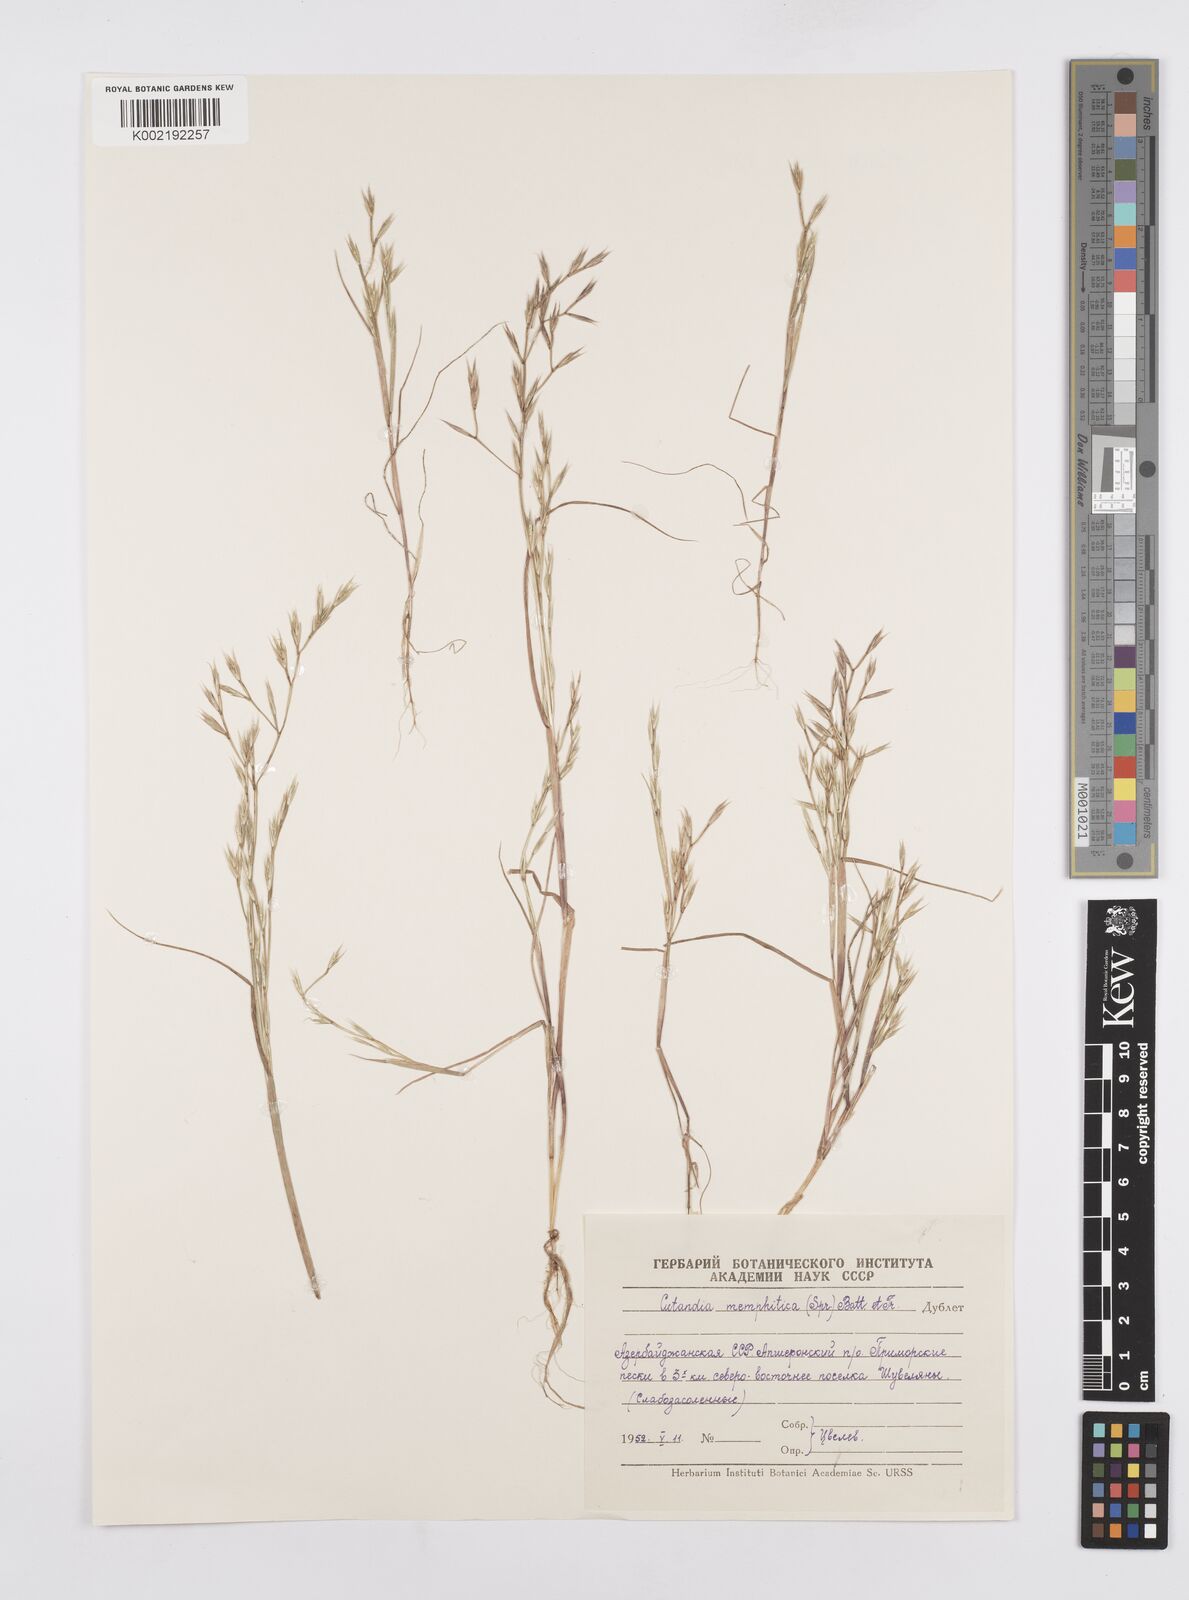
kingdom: Plantae
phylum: Tracheophyta
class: Liliopsida
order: Poales
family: Poaceae
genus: Cutandia
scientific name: Cutandia memphitica
